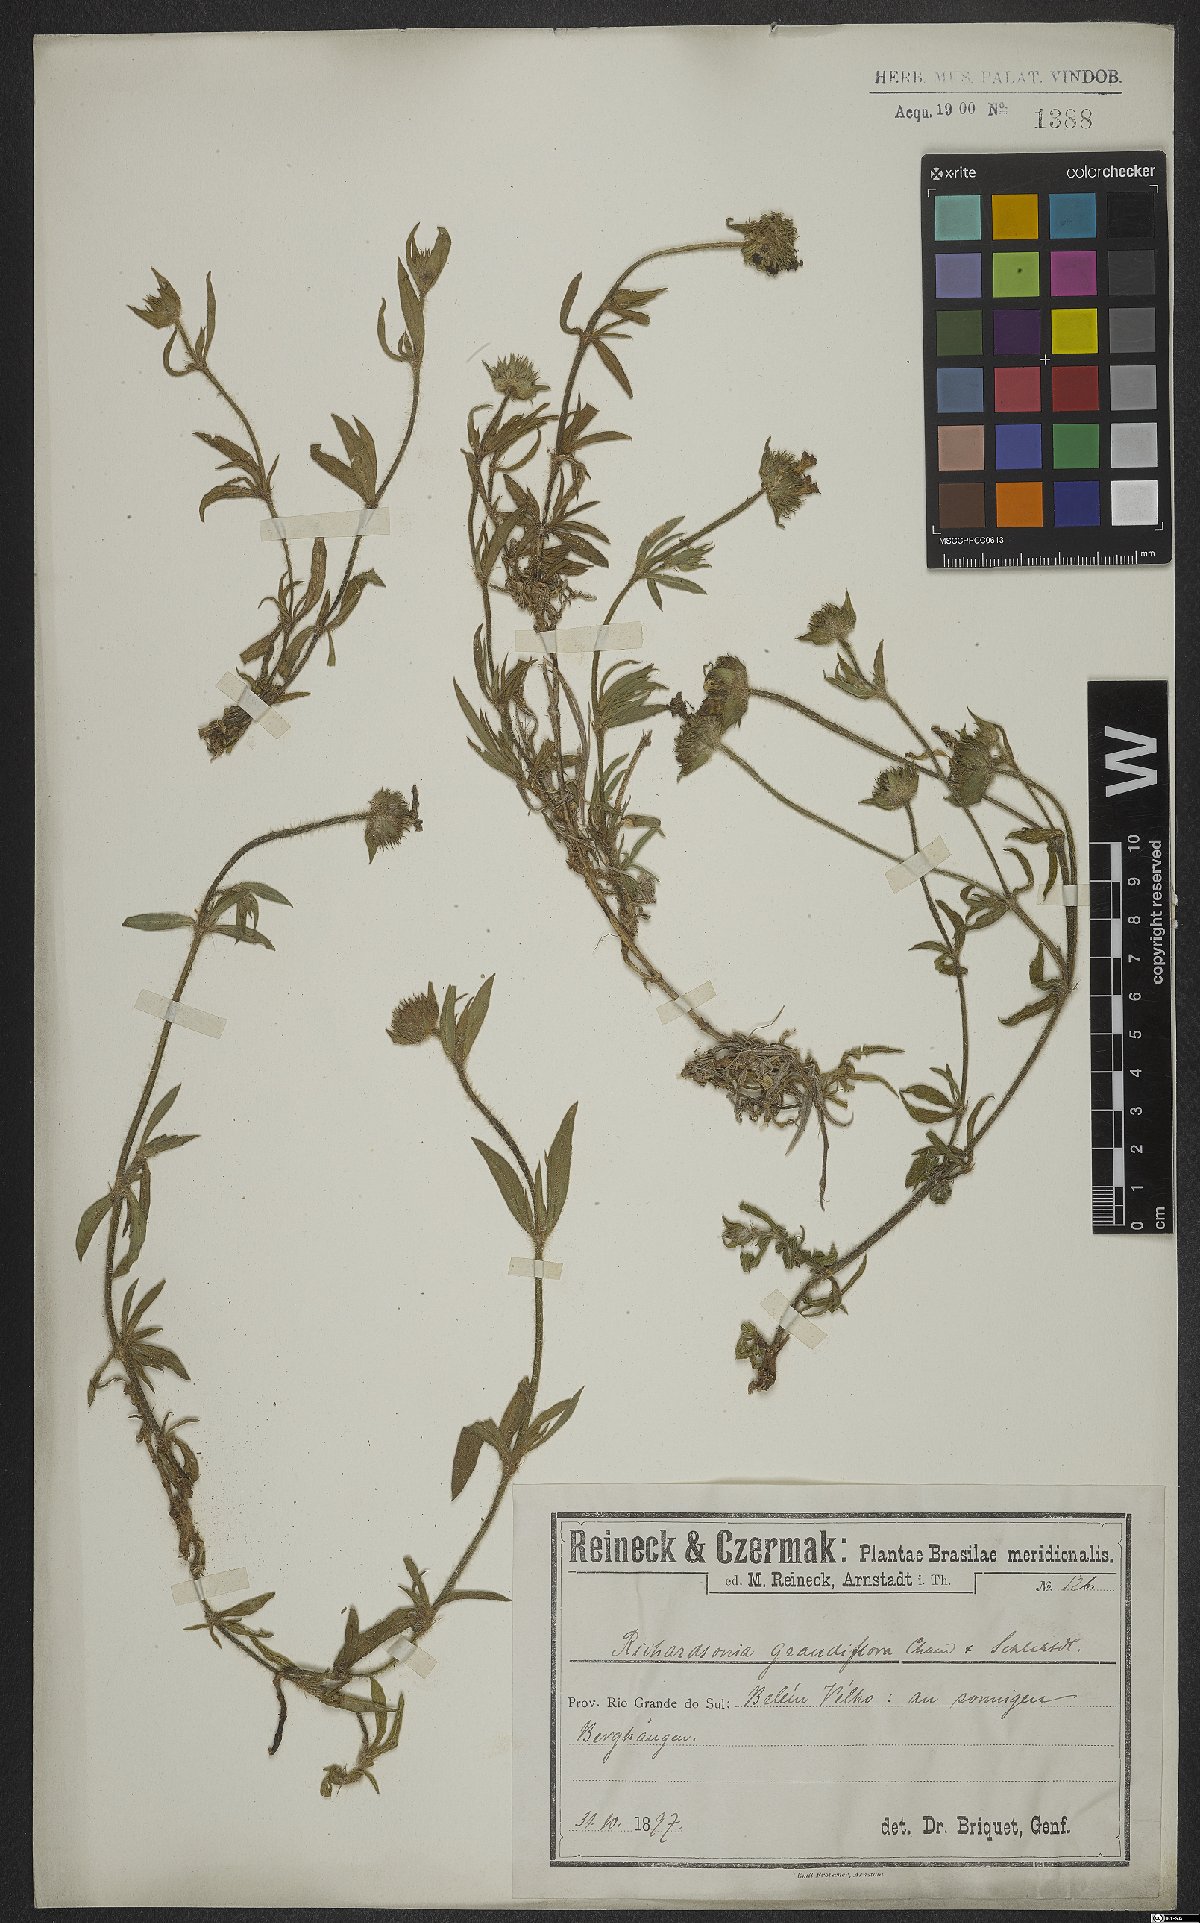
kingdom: Plantae
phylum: Tracheophyta
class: Magnoliopsida
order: Gentianales
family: Rubiaceae
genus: Richardia
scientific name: Richardia grandiflora
